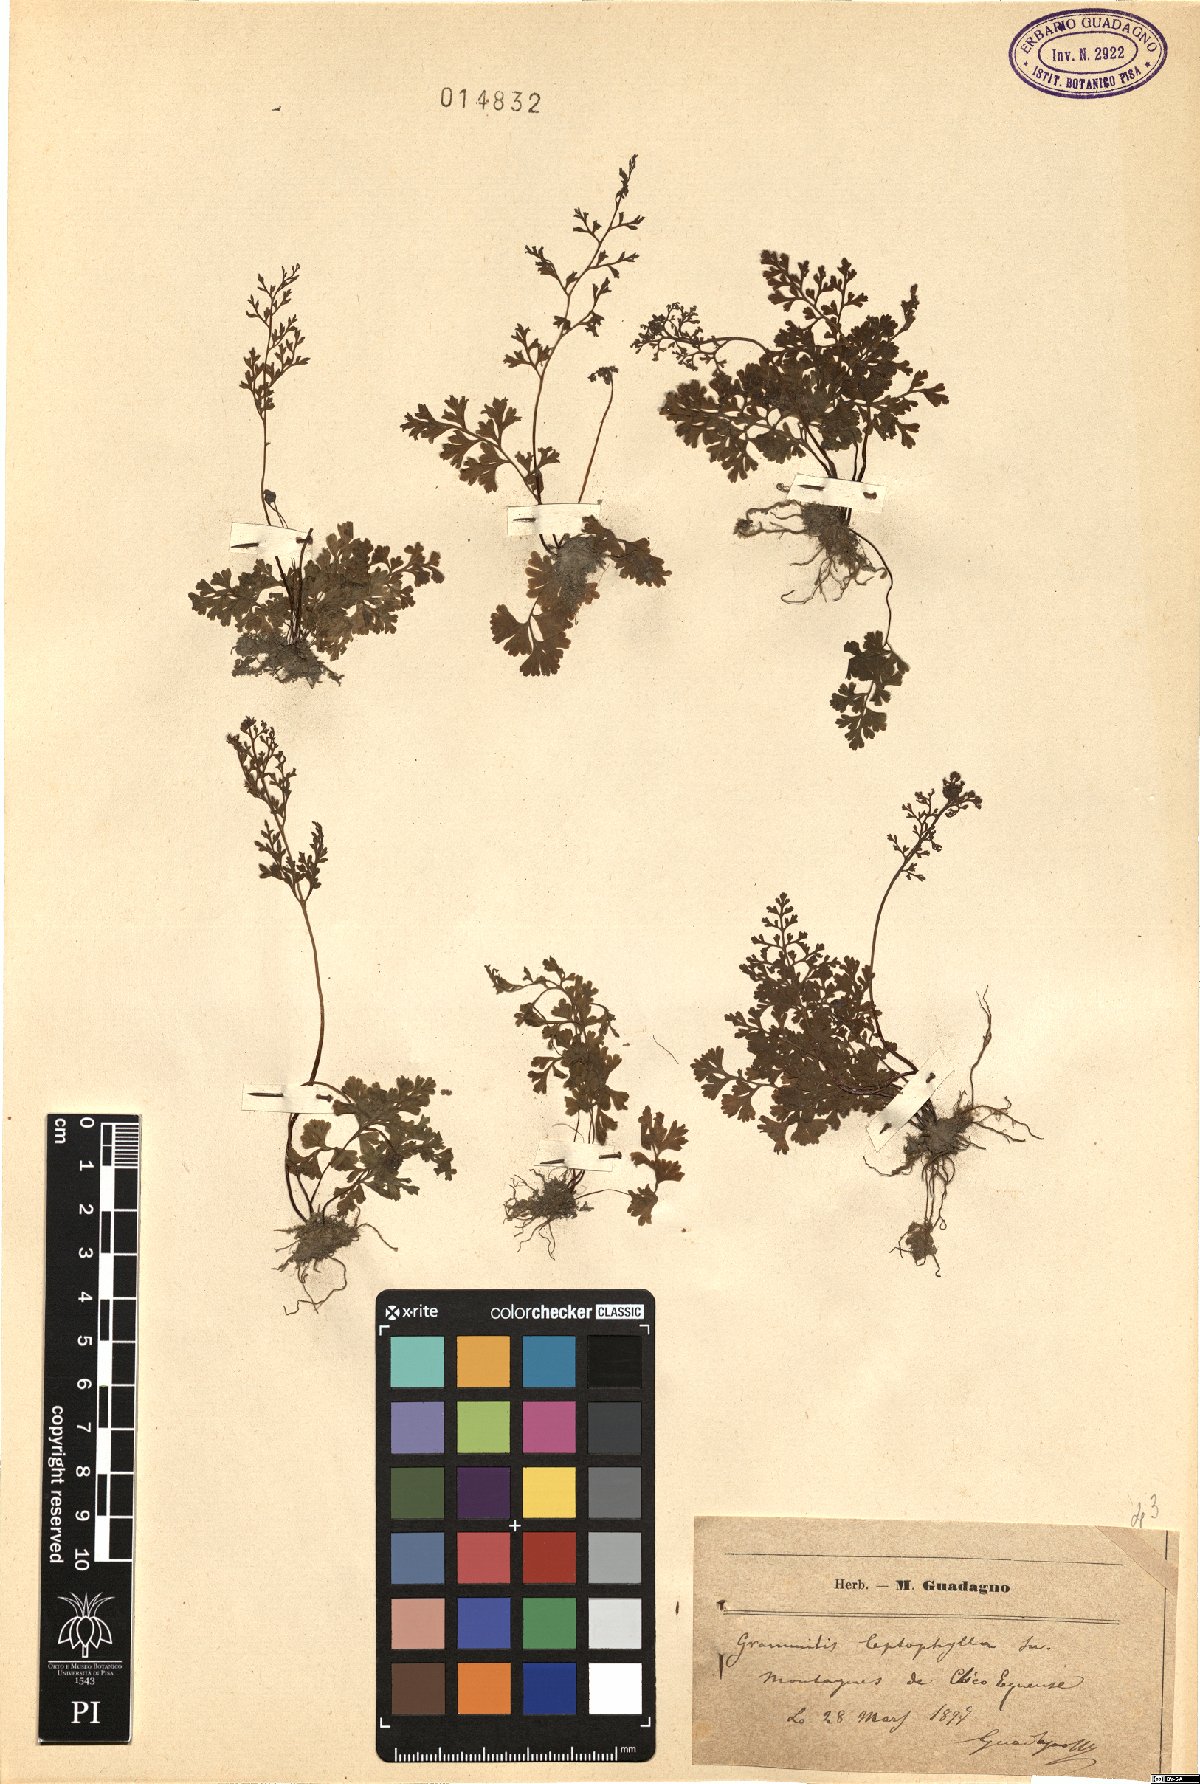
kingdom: Plantae
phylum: Tracheophyta
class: Polypodiopsida
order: Polypodiales
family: Pteridaceae
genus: Anogramma
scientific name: Anogramma leptophylla
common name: Jersey fern
